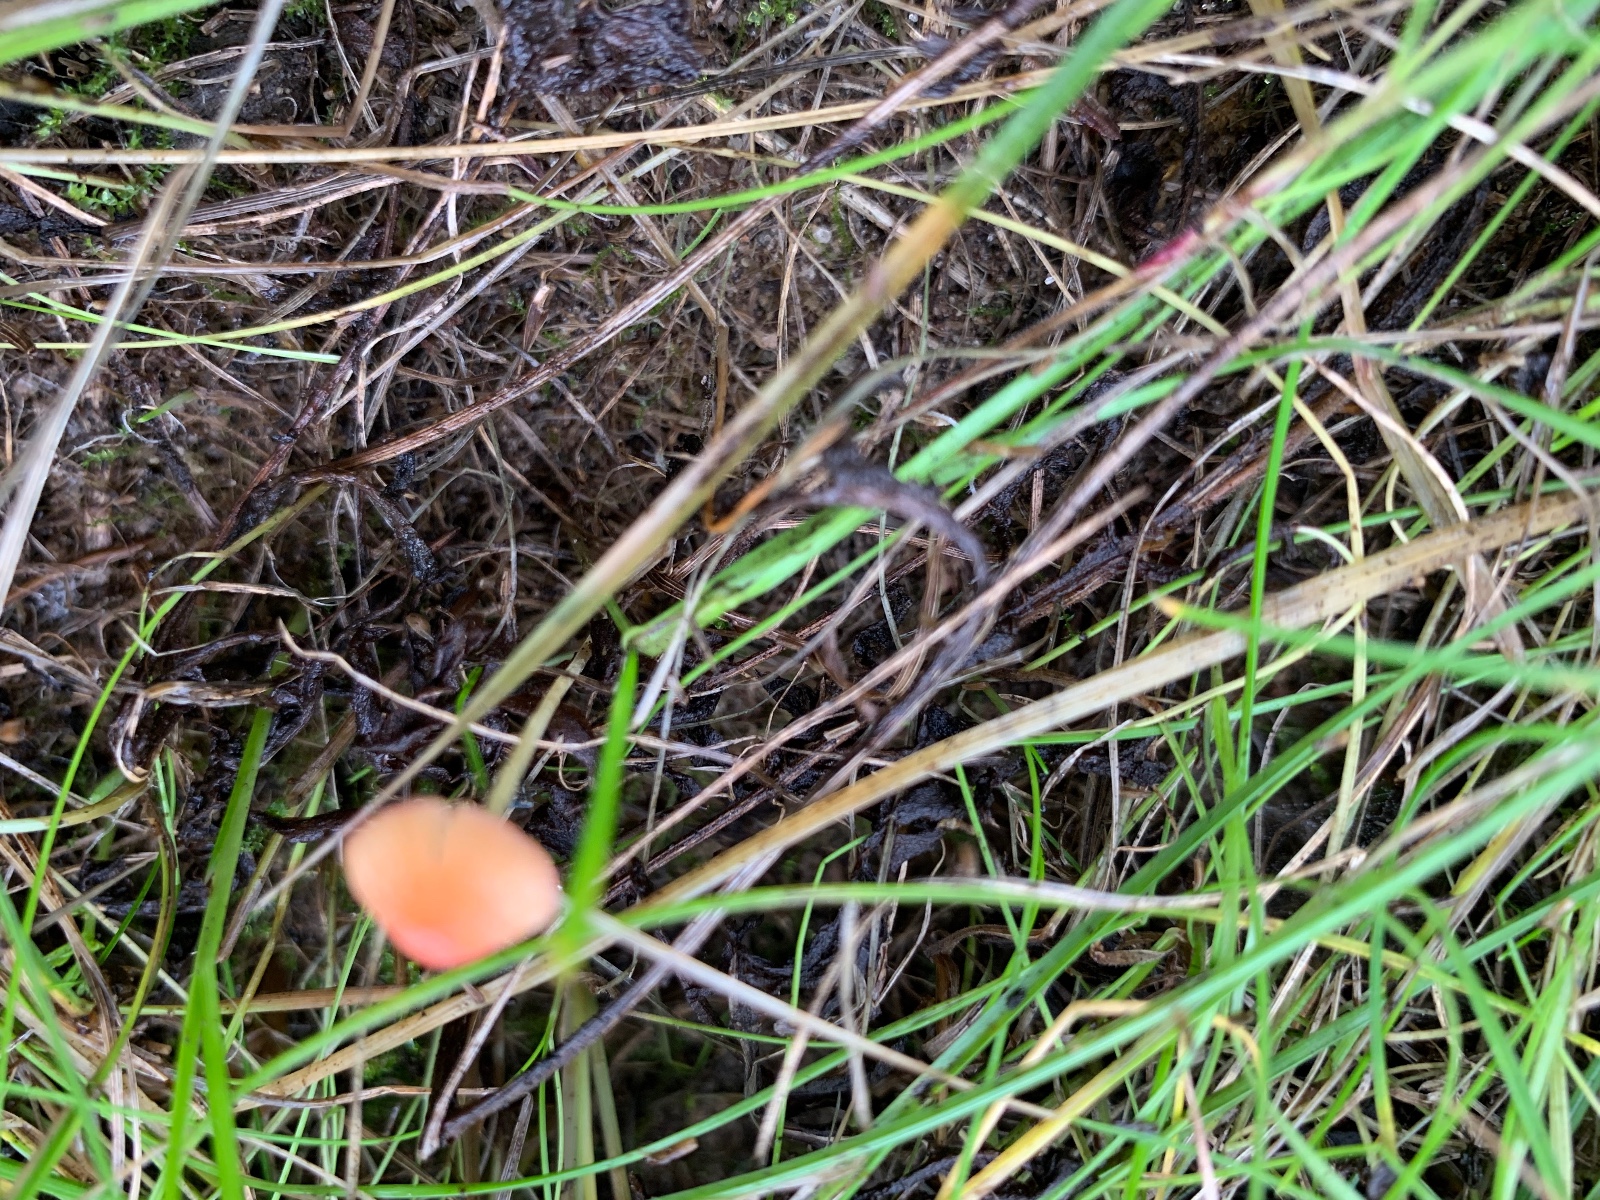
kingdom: Fungi
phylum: Basidiomycota
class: Agaricomycetes
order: Agaricales
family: Mycenaceae
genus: Mycena
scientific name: Mycena acicula
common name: orange huesvamp
